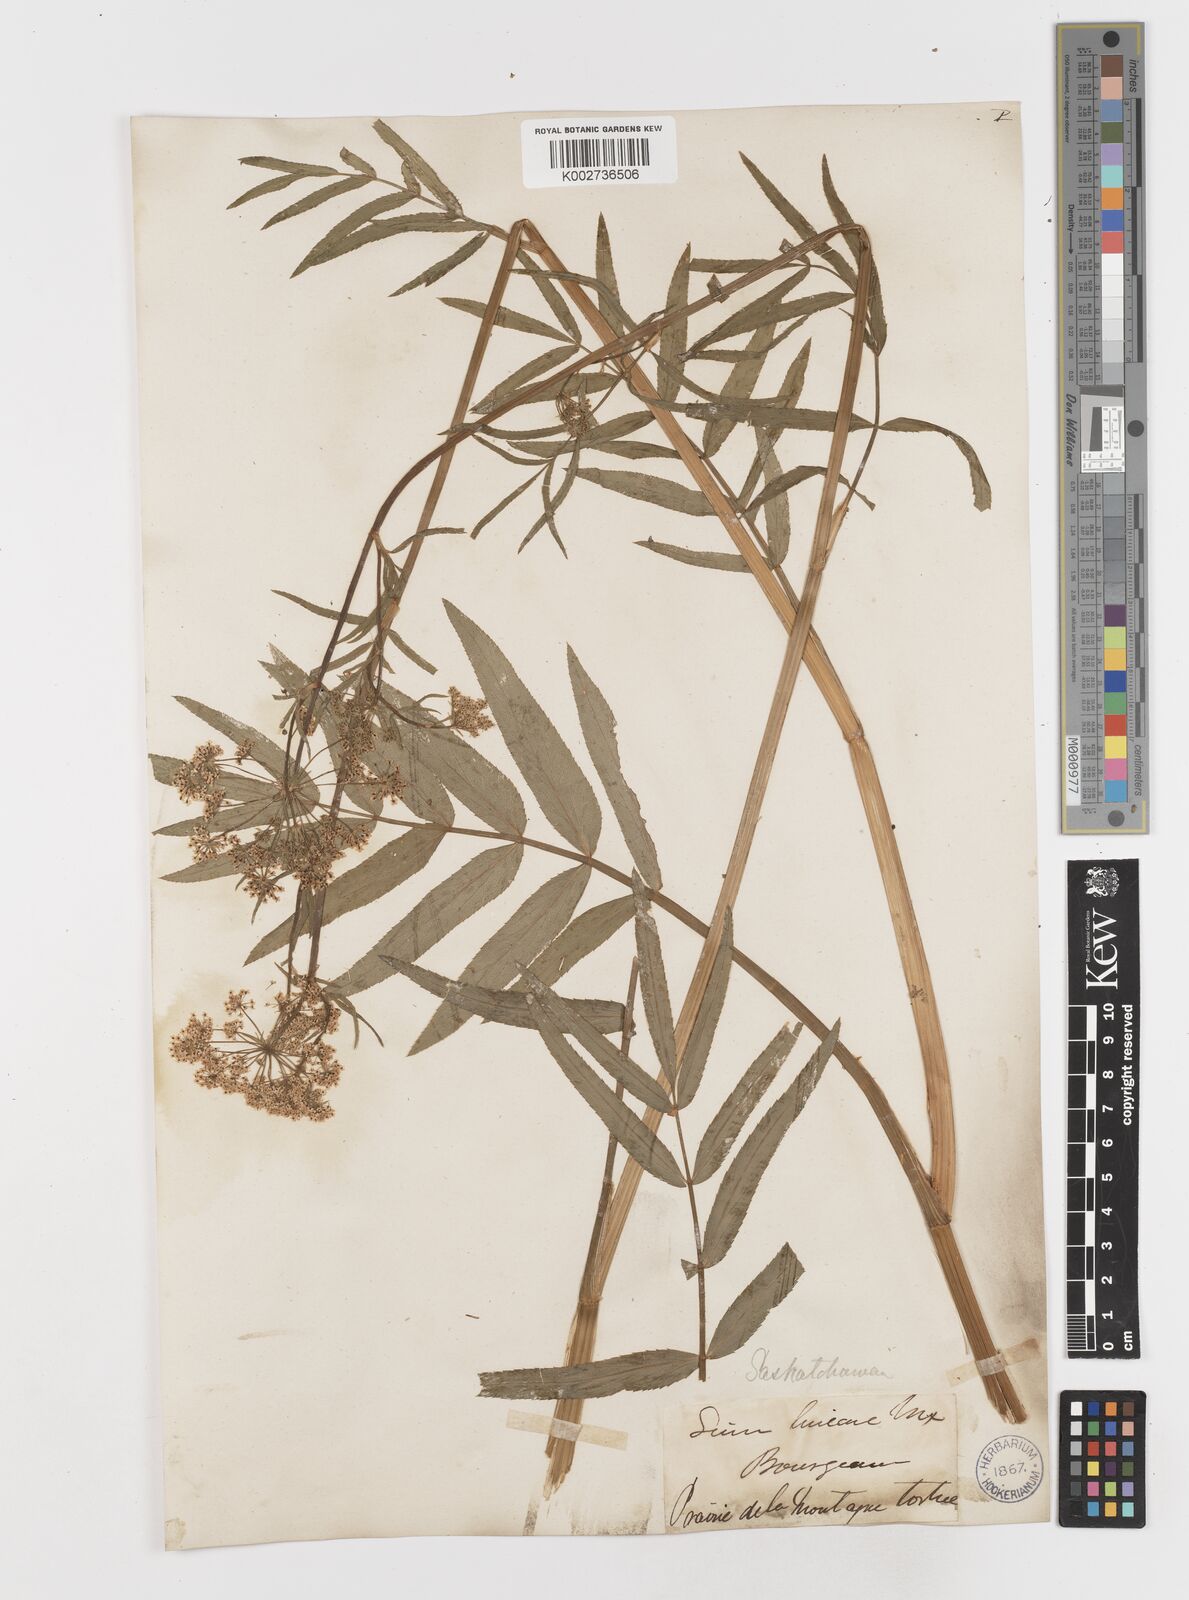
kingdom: Plantae
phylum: Tracheophyta
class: Magnoliopsida
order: Apiales
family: Apiaceae
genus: Sium
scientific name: Sium suave
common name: Hemlock water-parsnip
